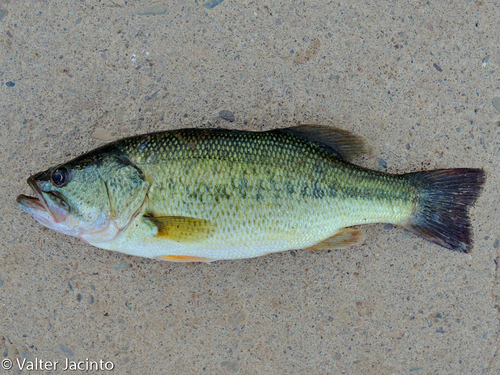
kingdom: Animalia
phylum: Chordata
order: Perciformes
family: Centrarchidae
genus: Micropterus
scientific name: Micropterus salmoides
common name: Largemouth bass
